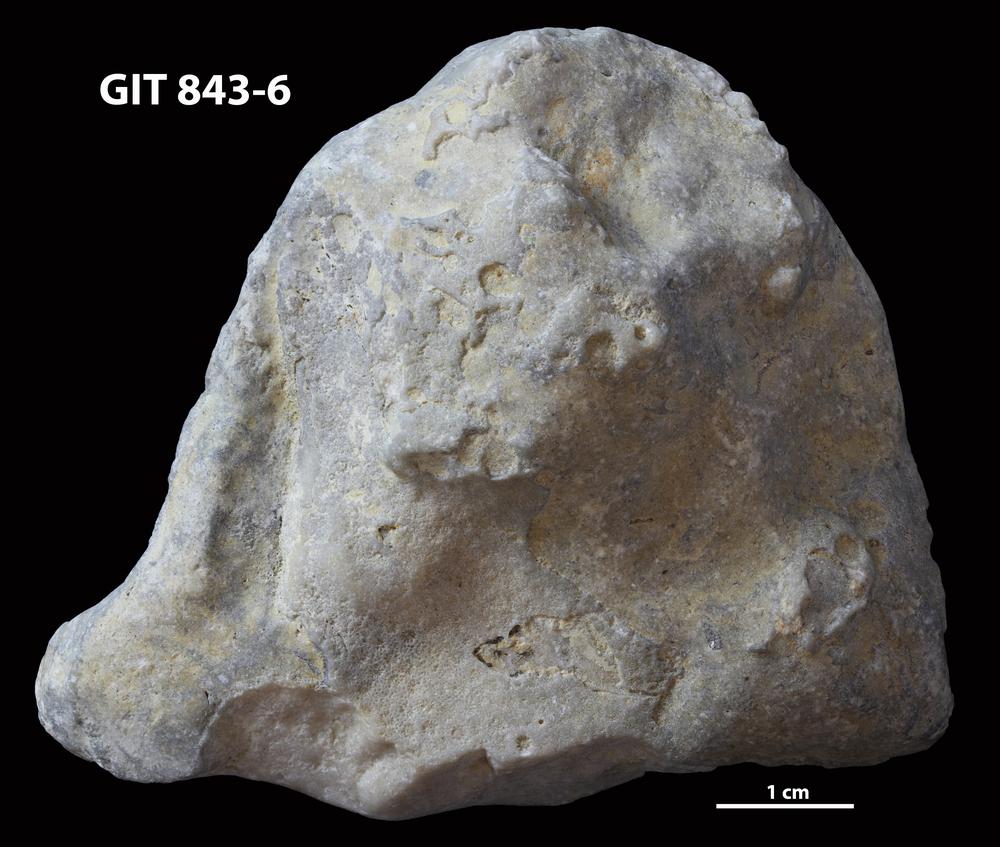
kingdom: Animalia
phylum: Cnidaria
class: Anthozoa
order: Heliolitina
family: Heliolitidae
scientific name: Heliolitidae
